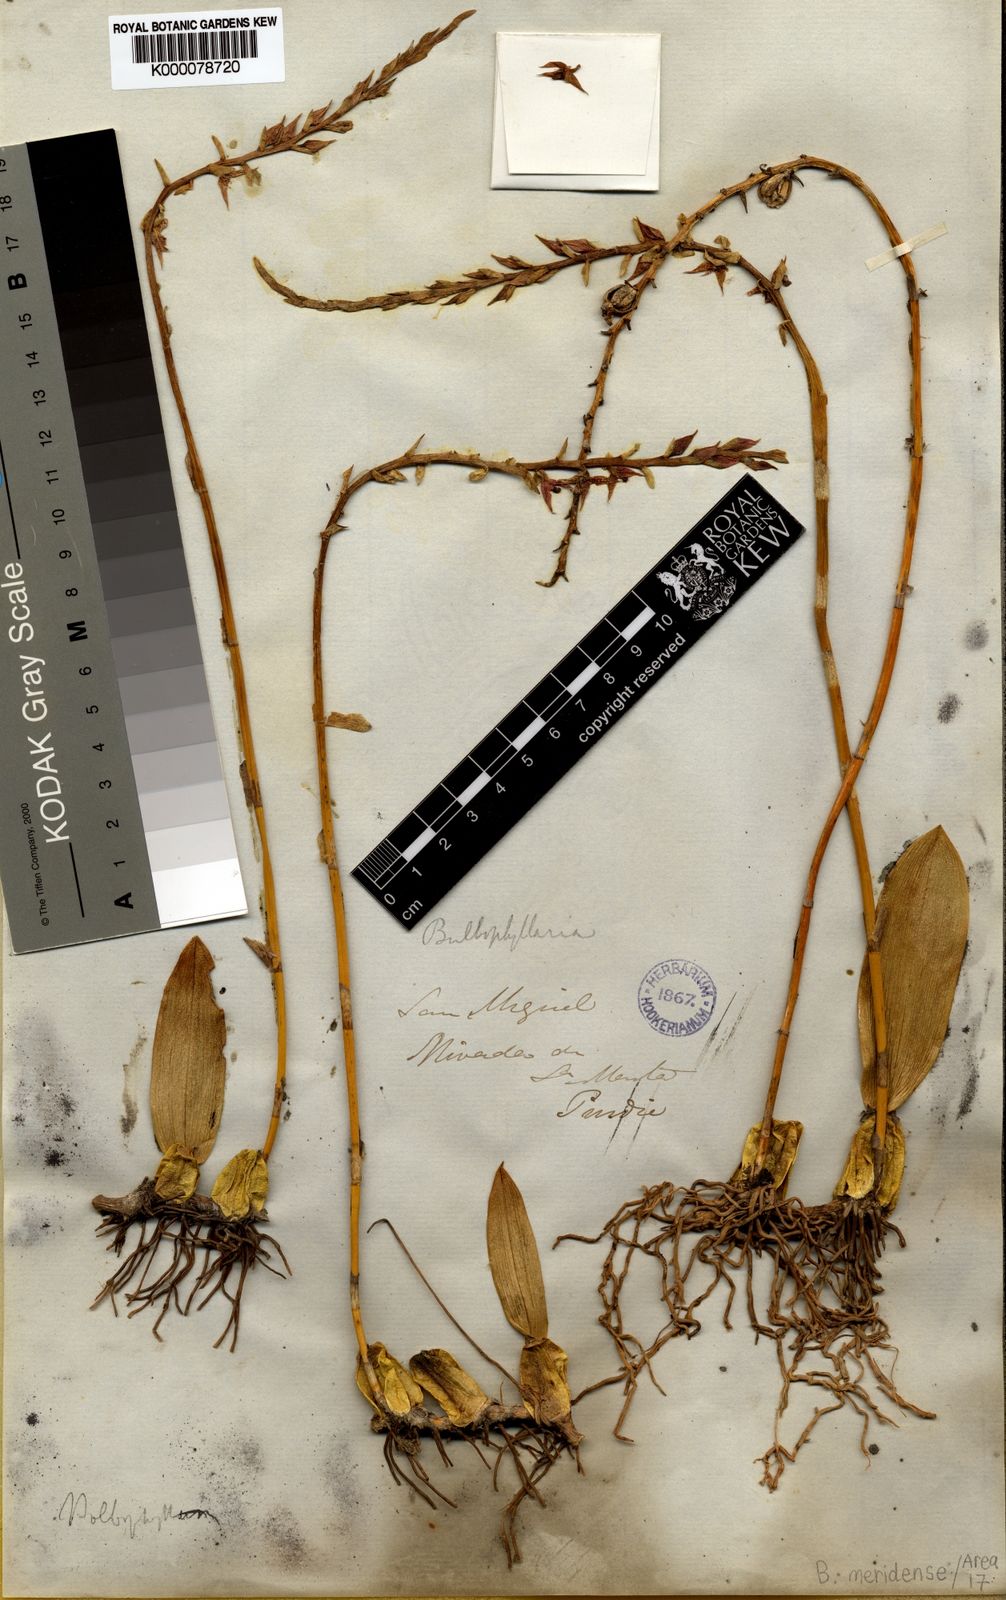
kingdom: Plantae
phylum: Tracheophyta
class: Liliopsida
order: Asparagales
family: Orchidaceae
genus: Bulbophyllum
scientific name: Bulbophyllum meridense
